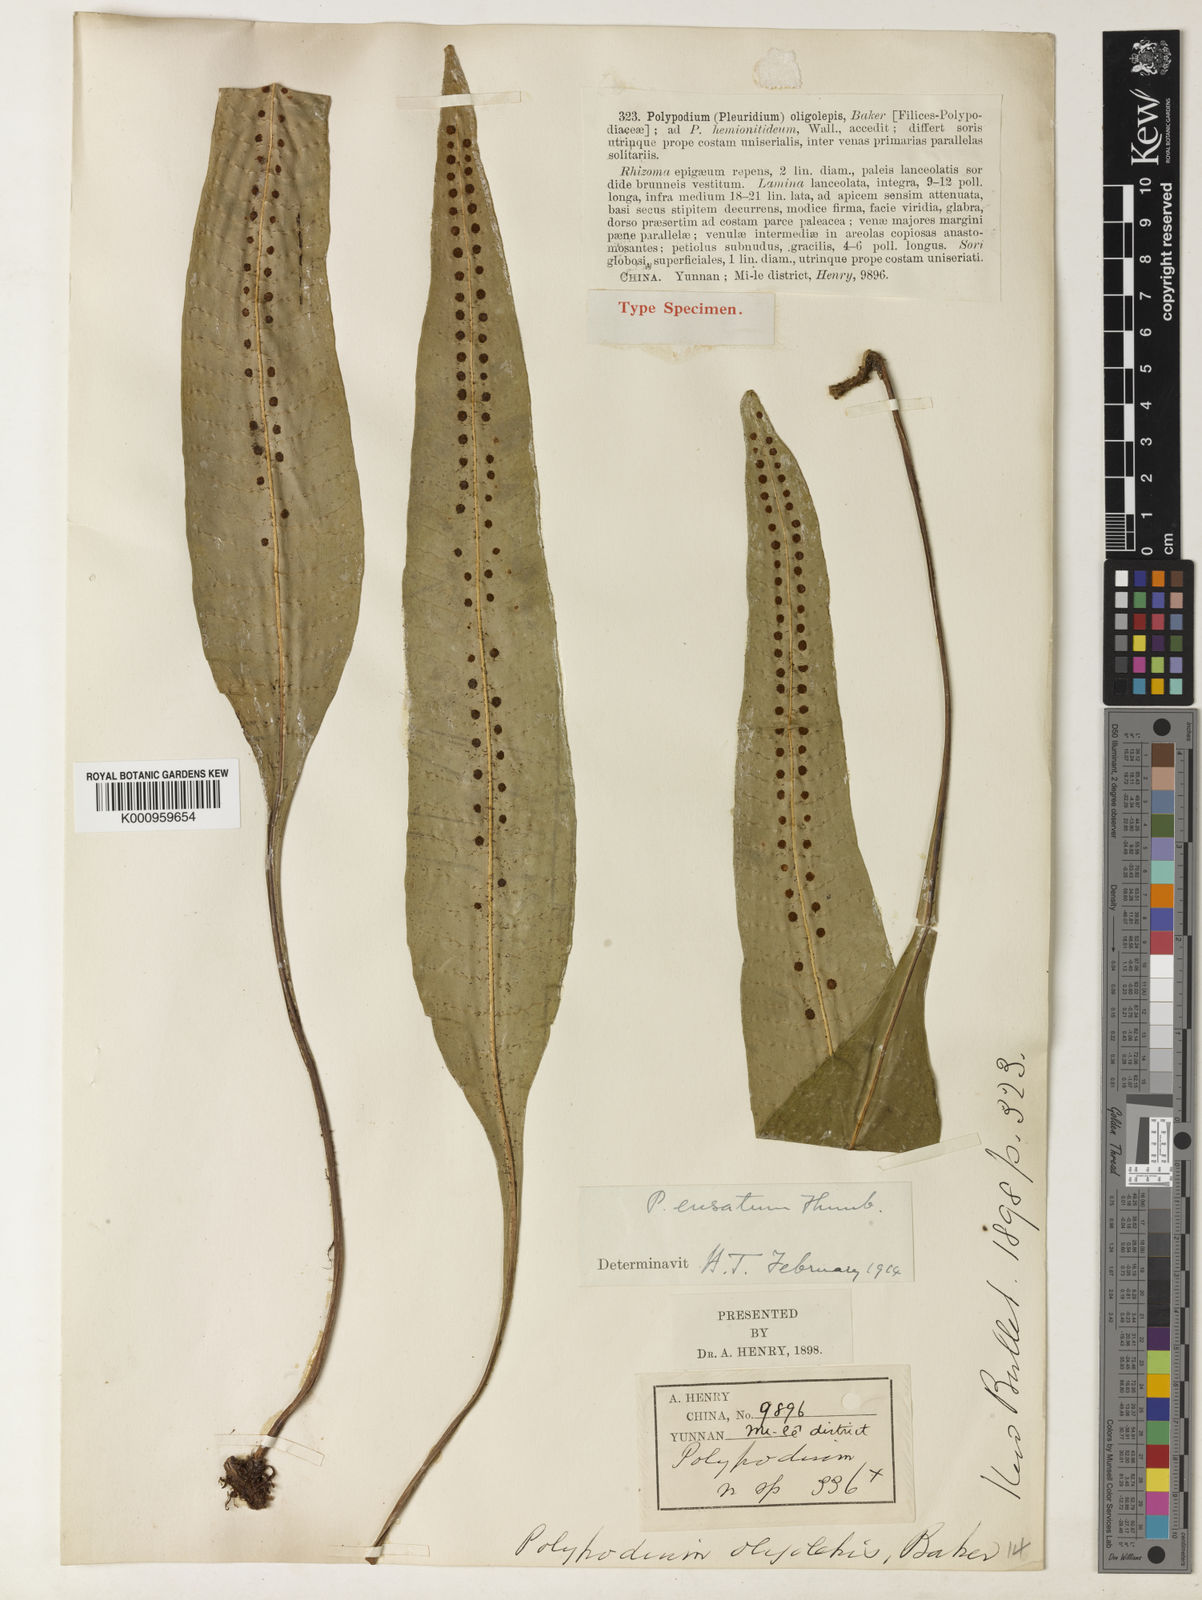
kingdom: Plantae
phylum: Tracheophyta
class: Polypodiopsida
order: Polypodiales
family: Polypodiaceae
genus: Lepisorus
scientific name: Lepisorus ensatus
